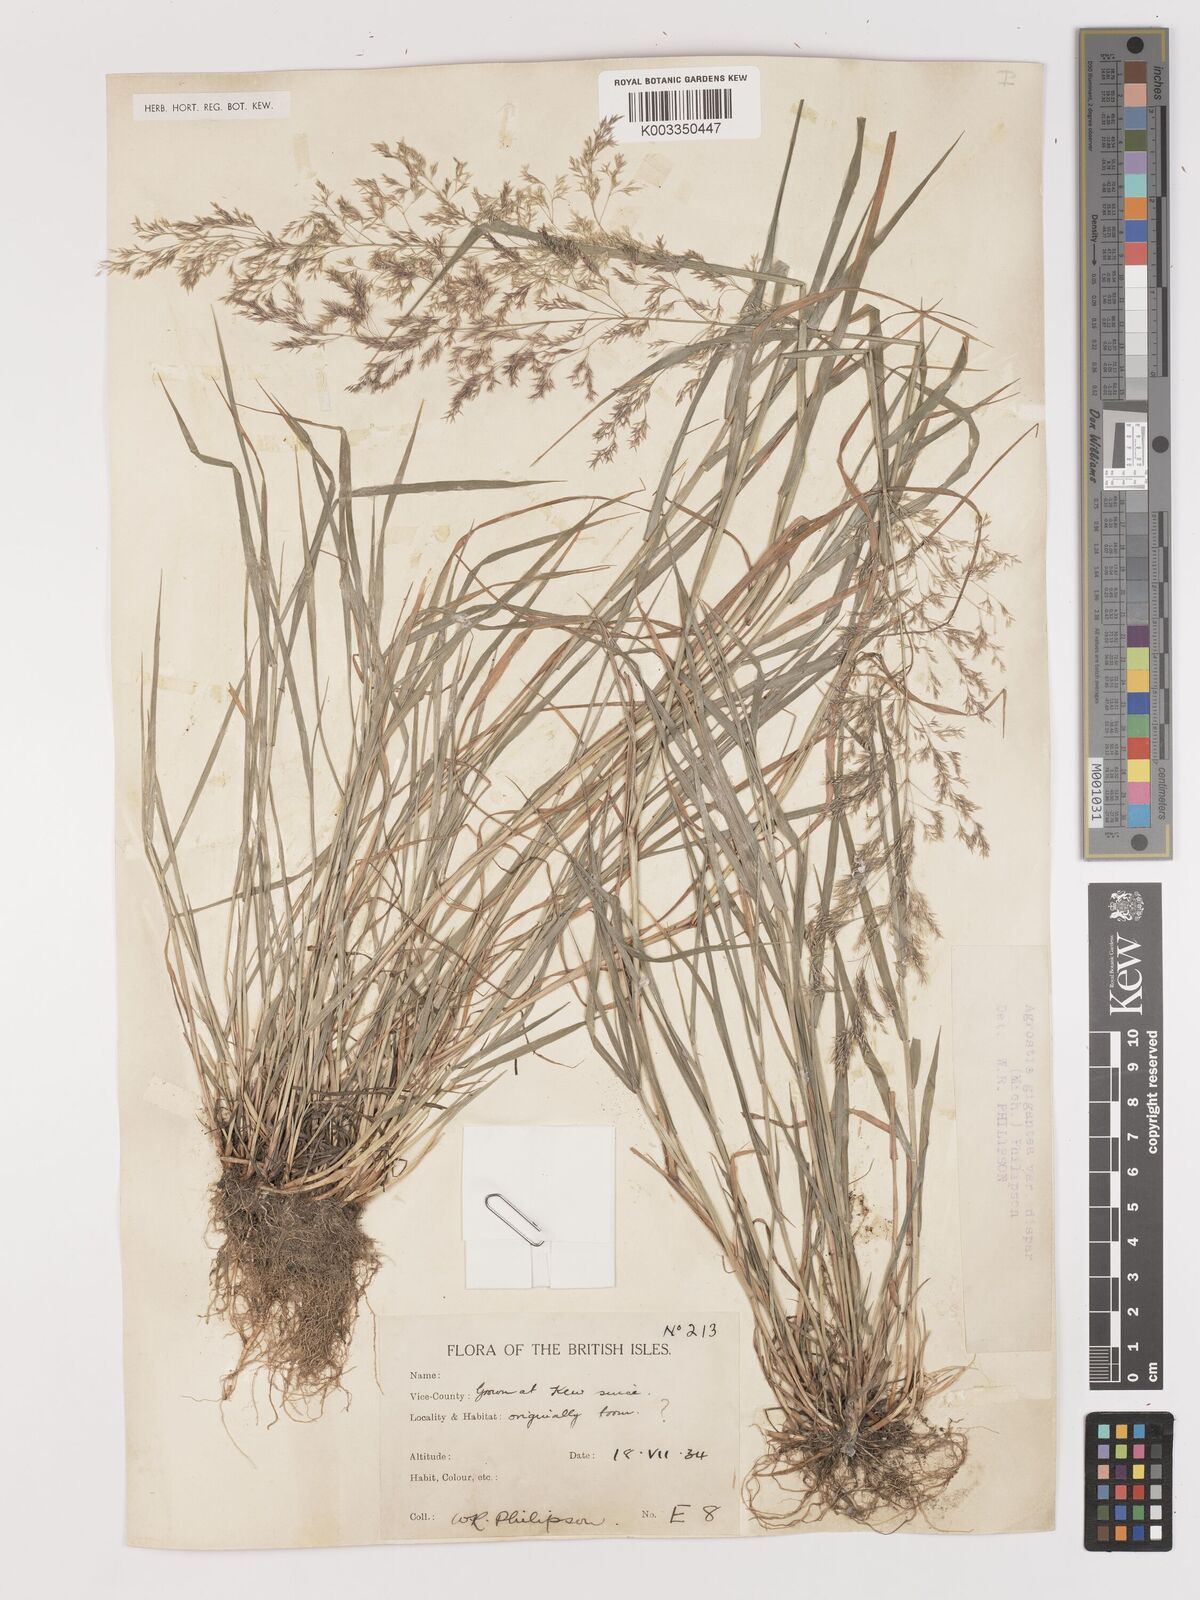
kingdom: Plantae
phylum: Tracheophyta
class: Liliopsida
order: Poales
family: Poaceae
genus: Agrostis
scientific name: Agrostis gigantea
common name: Black bent
